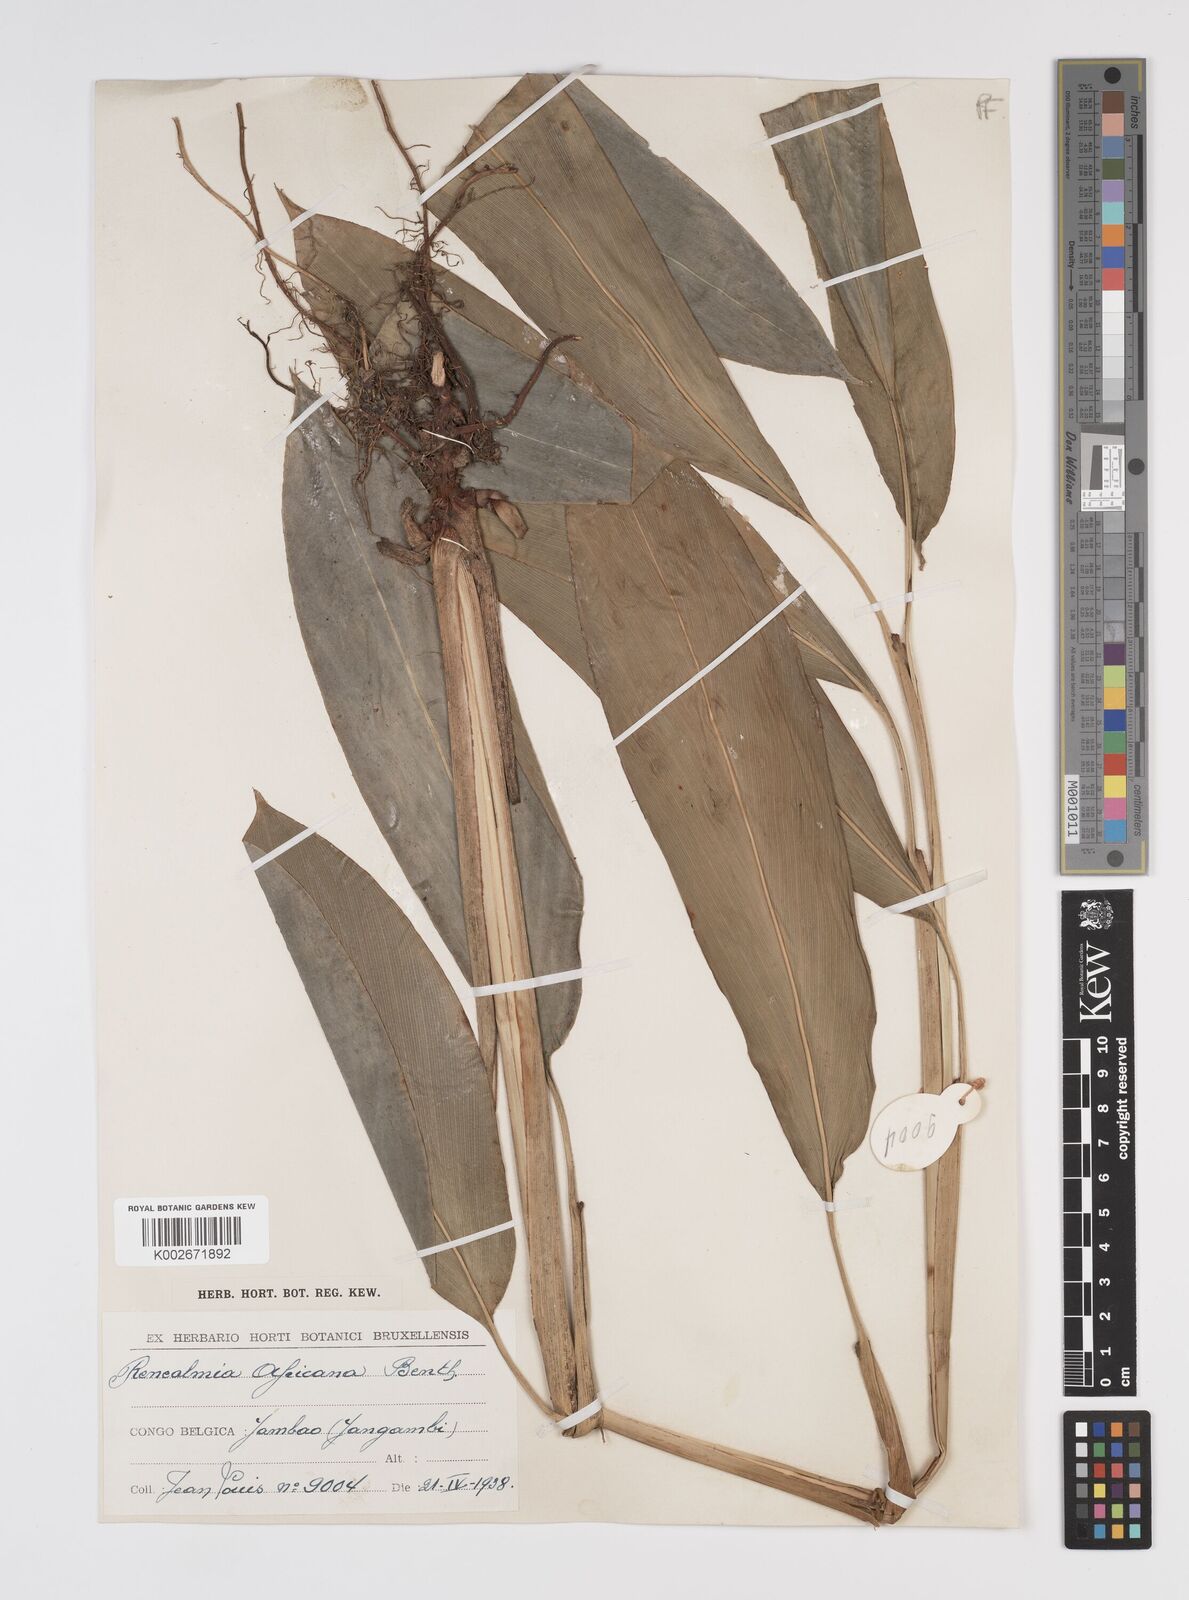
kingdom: Plantae
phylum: Tracheophyta
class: Liliopsida
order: Zingiberales
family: Zingiberaceae
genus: Renealmia
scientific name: Renealmia africana
